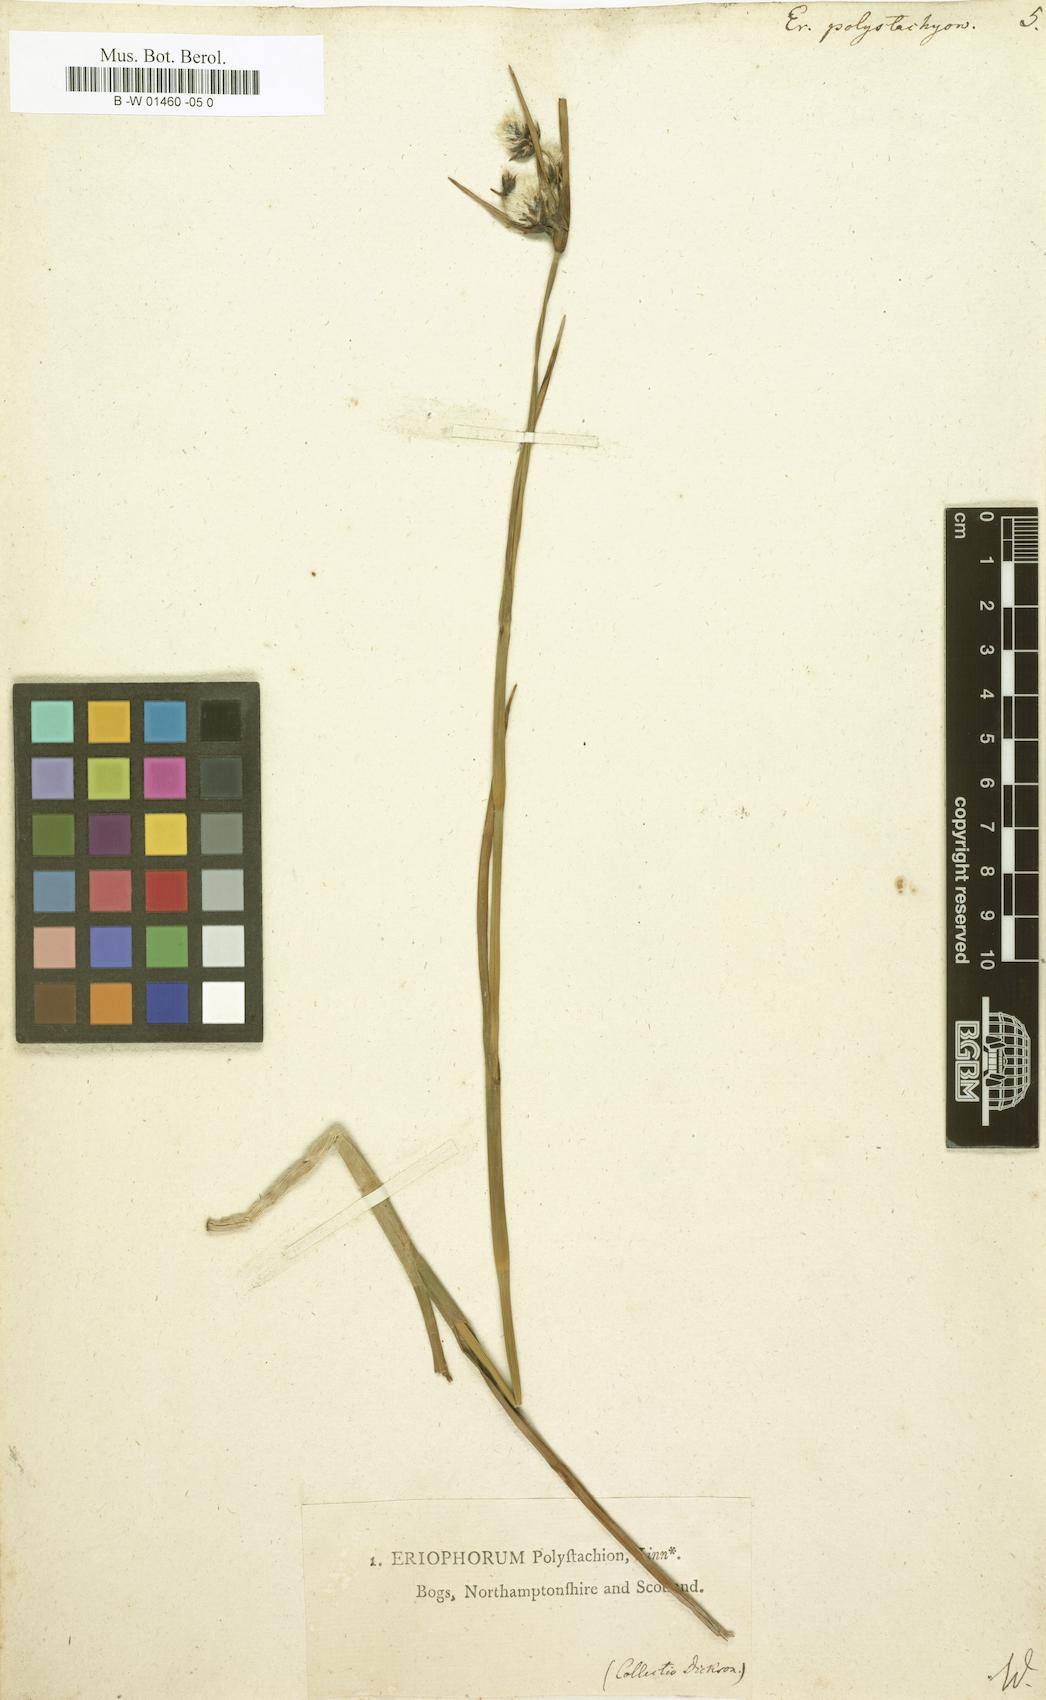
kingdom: Plantae
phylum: Tracheophyta
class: Liliopsida
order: Poales
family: Cyperaceae
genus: Eriophorum
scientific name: Eriophorum angustifolium
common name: Common cottongrass
